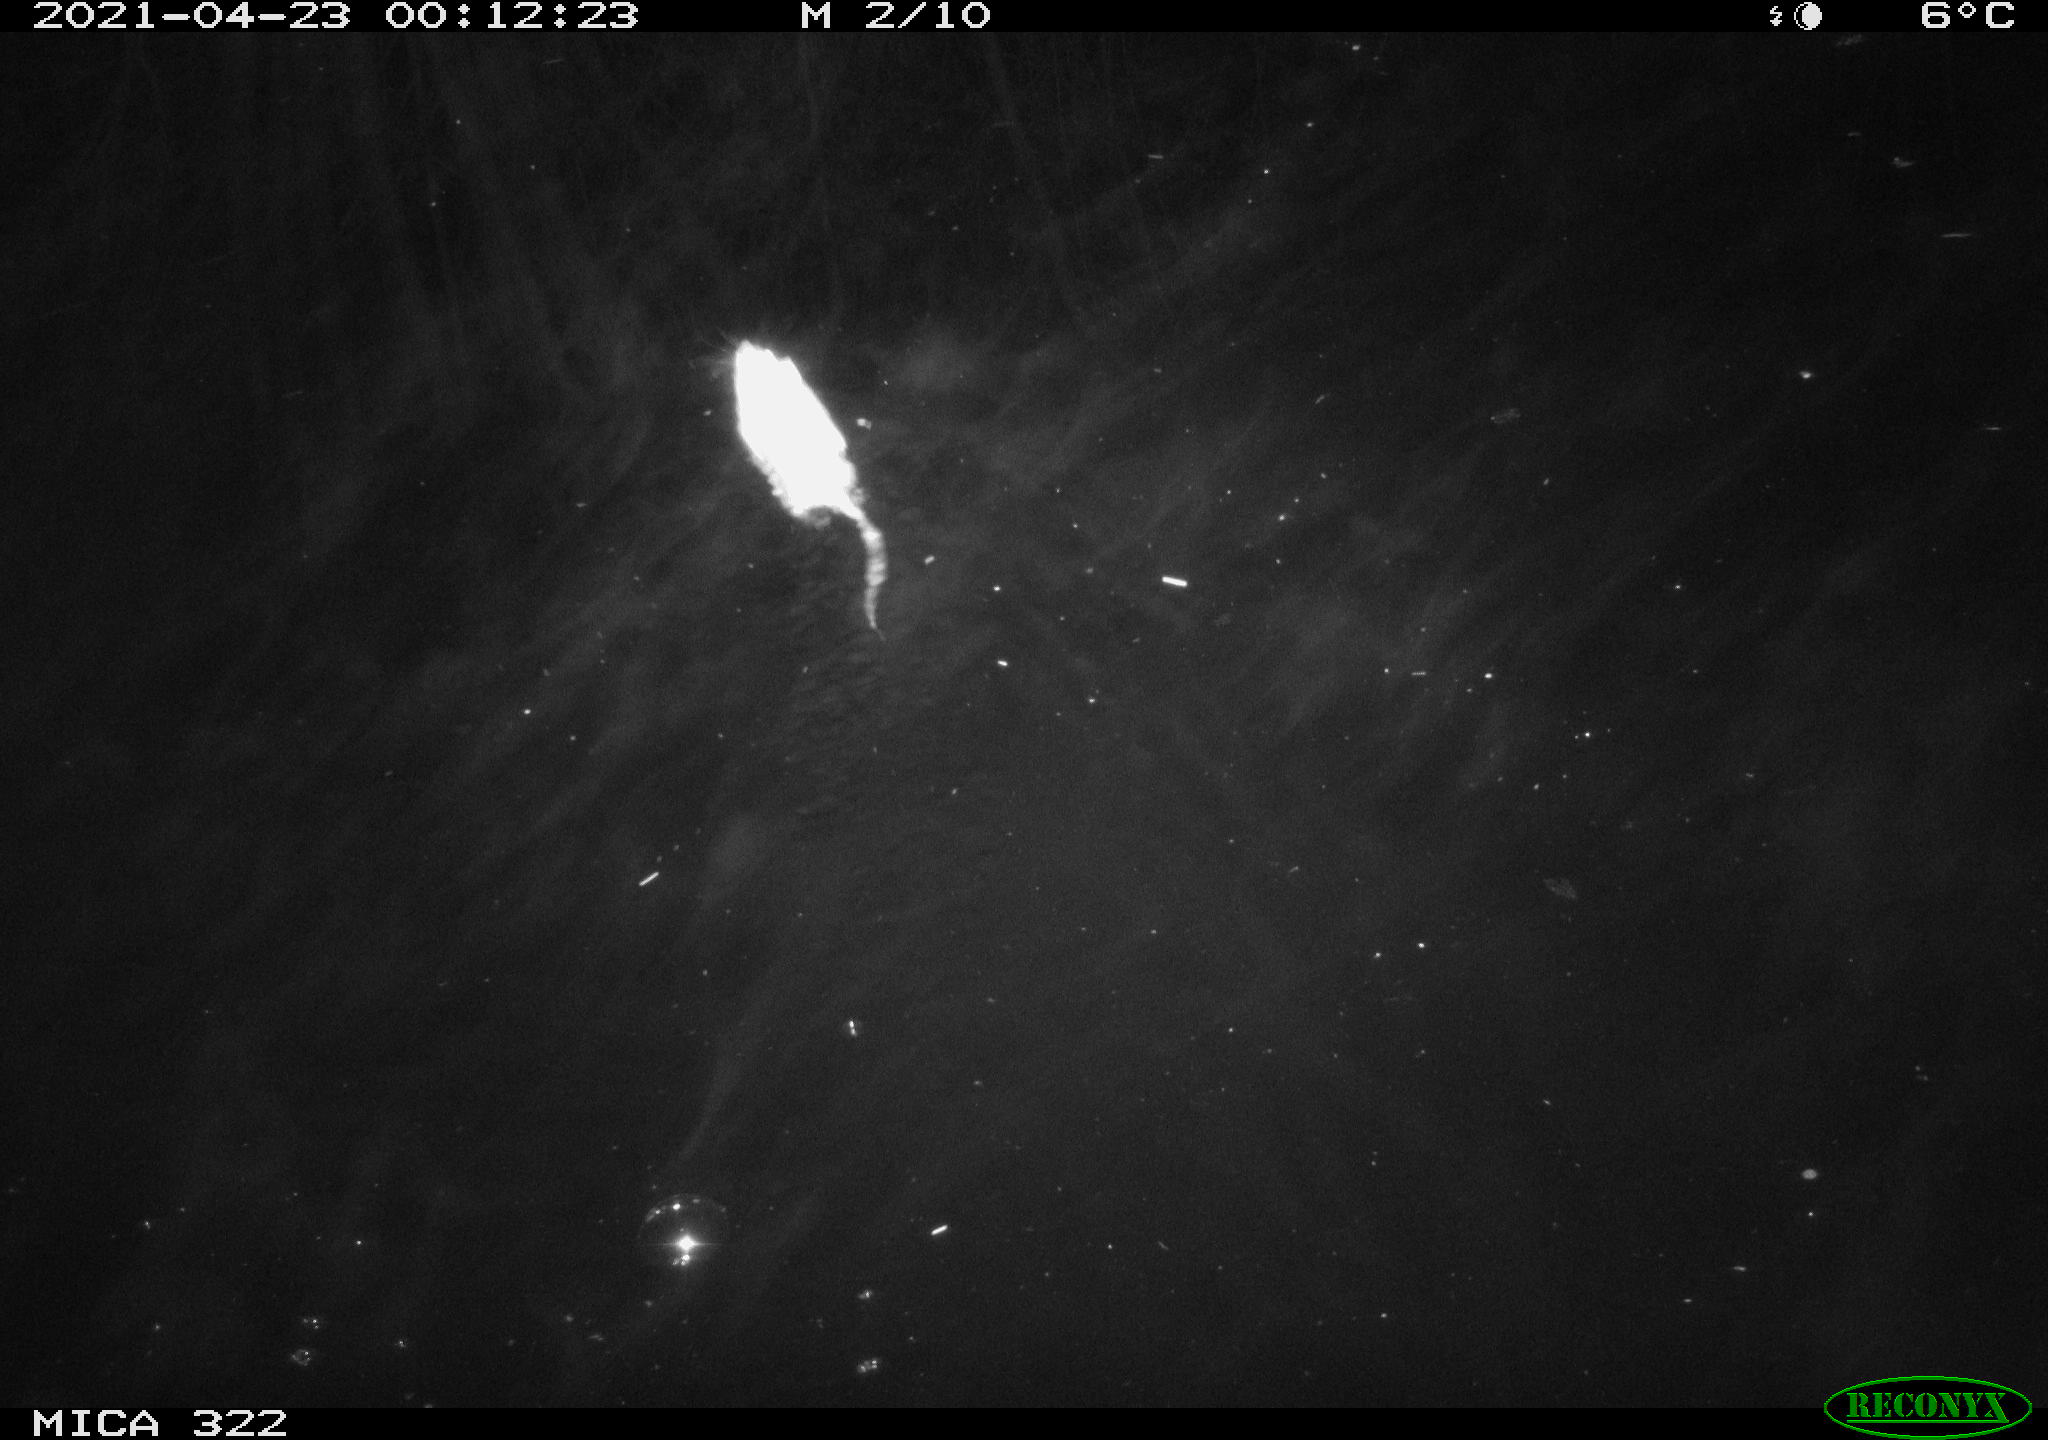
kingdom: Animalia
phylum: Chordata
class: Mammalia
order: Rodentia
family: Muridae
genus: Rattus
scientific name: Rattus norvegicus
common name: Brown rat
